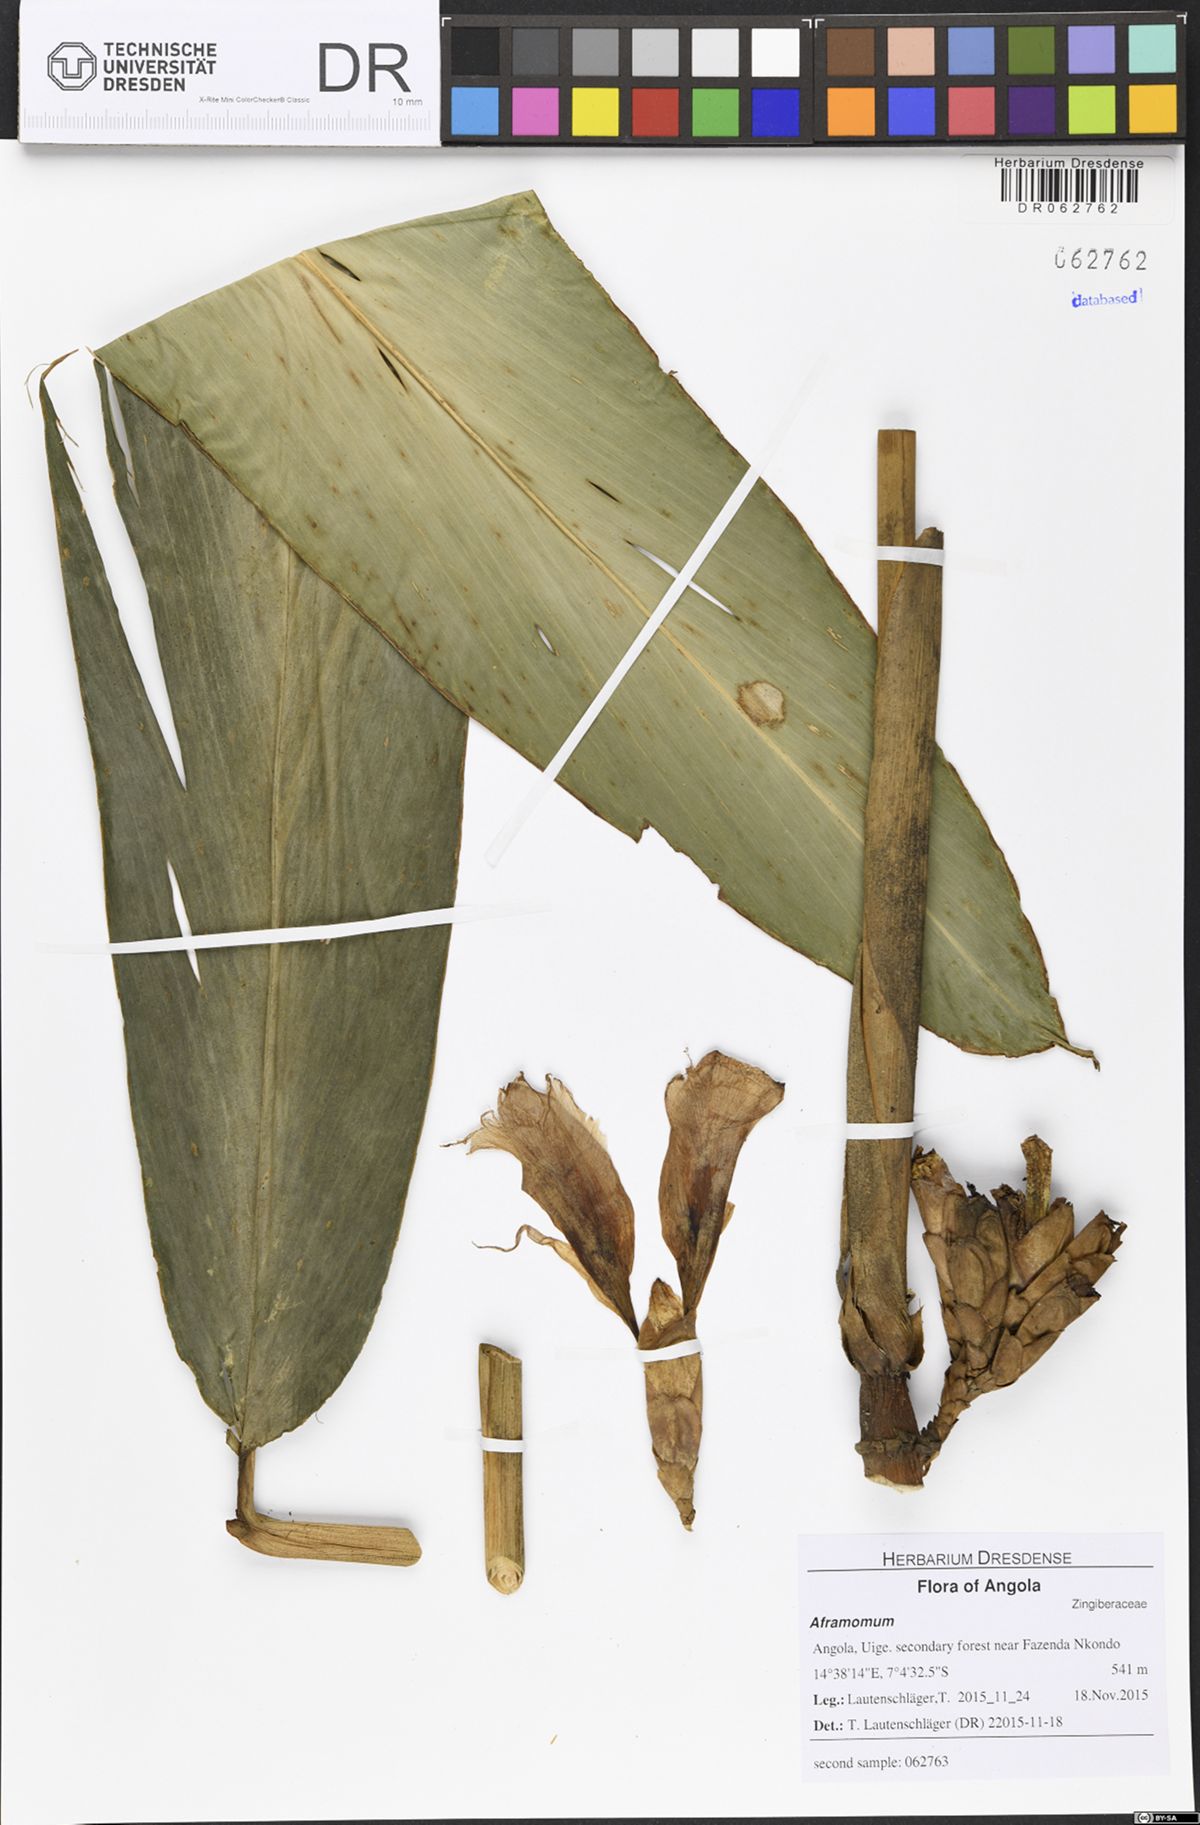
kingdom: Plantae
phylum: Tracheophyta
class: Liliopsida
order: Zingiberales
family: Zingiberaceae
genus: Aframomum
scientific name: Aframomum giganteum
